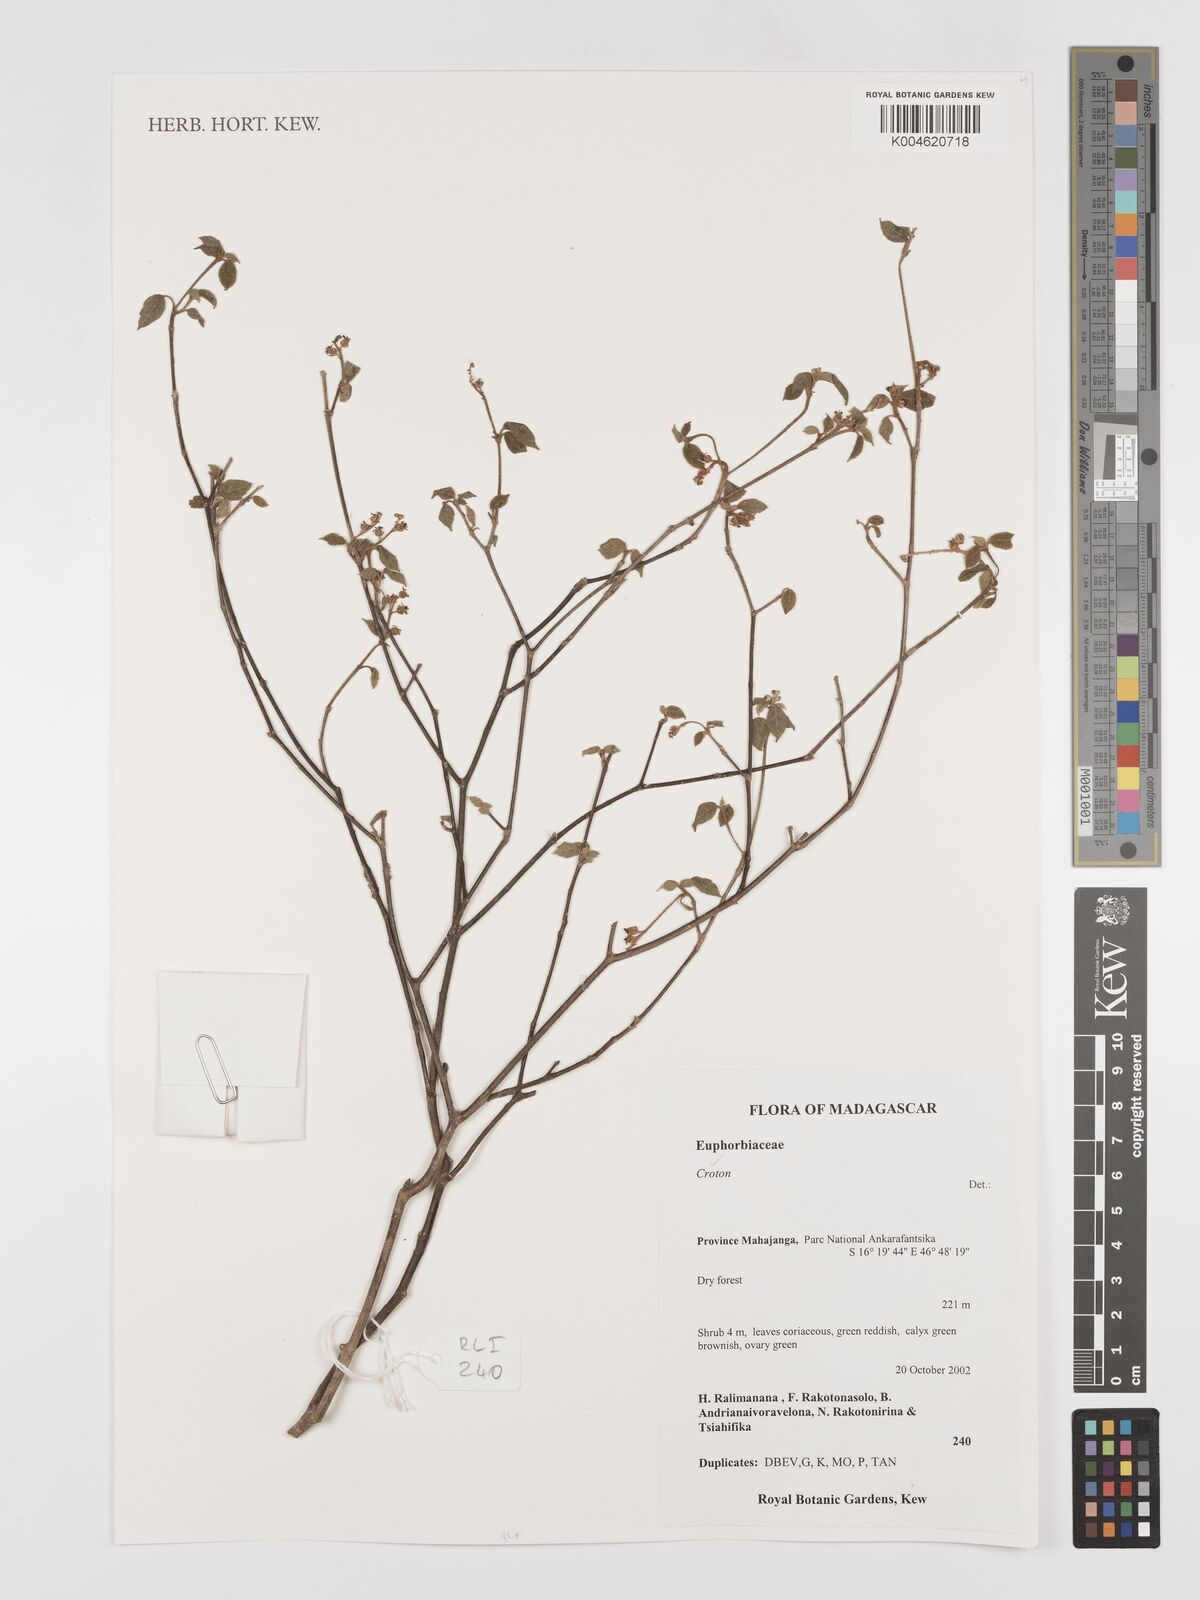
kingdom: Plantae
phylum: Tracheophyta
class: Magnoliopsida
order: Malpighiales
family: Euphorbiaceae
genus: Croton
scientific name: Croton
